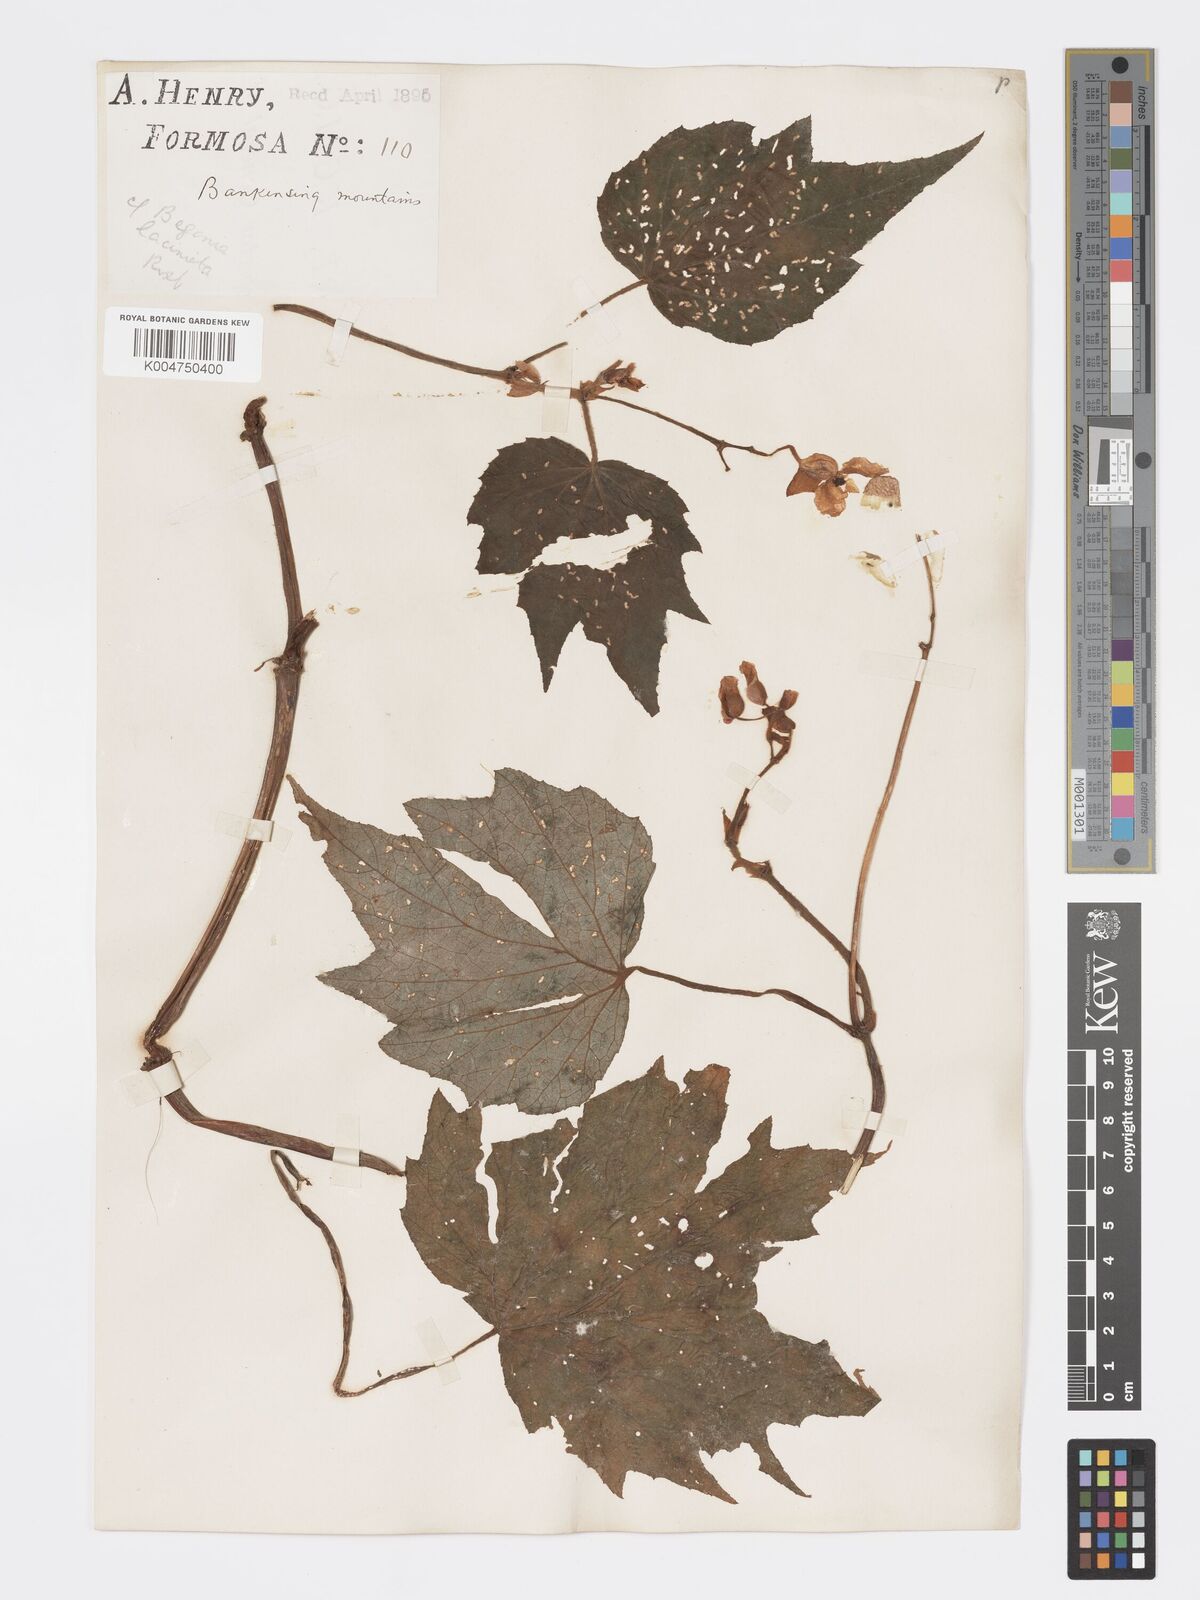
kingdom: Plantae
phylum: Tracheophyta
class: Magnoliopsida
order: Cucurbitales
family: Begoniaceae
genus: Begonia
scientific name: Begonia palmata
